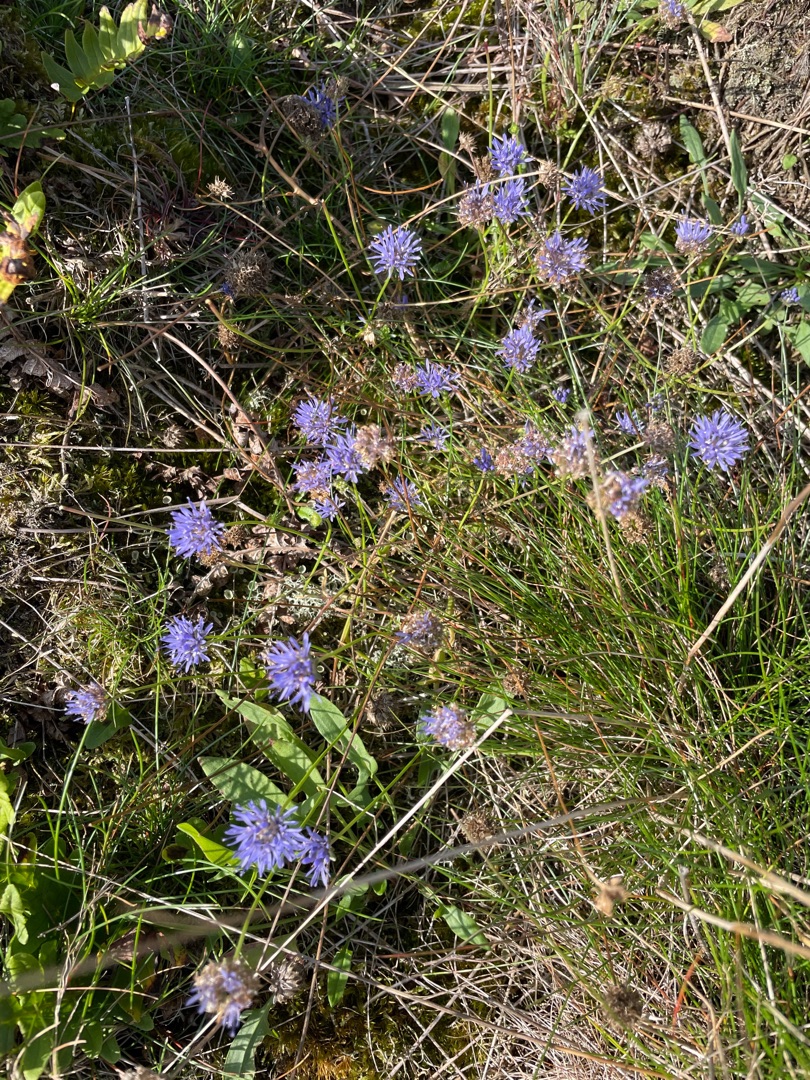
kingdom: Plantae
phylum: Tracheophyta
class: Magnoliopsida
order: Asterales
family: Campanulaceae
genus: Jasione
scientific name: Jasione montana
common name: Blåmunke
